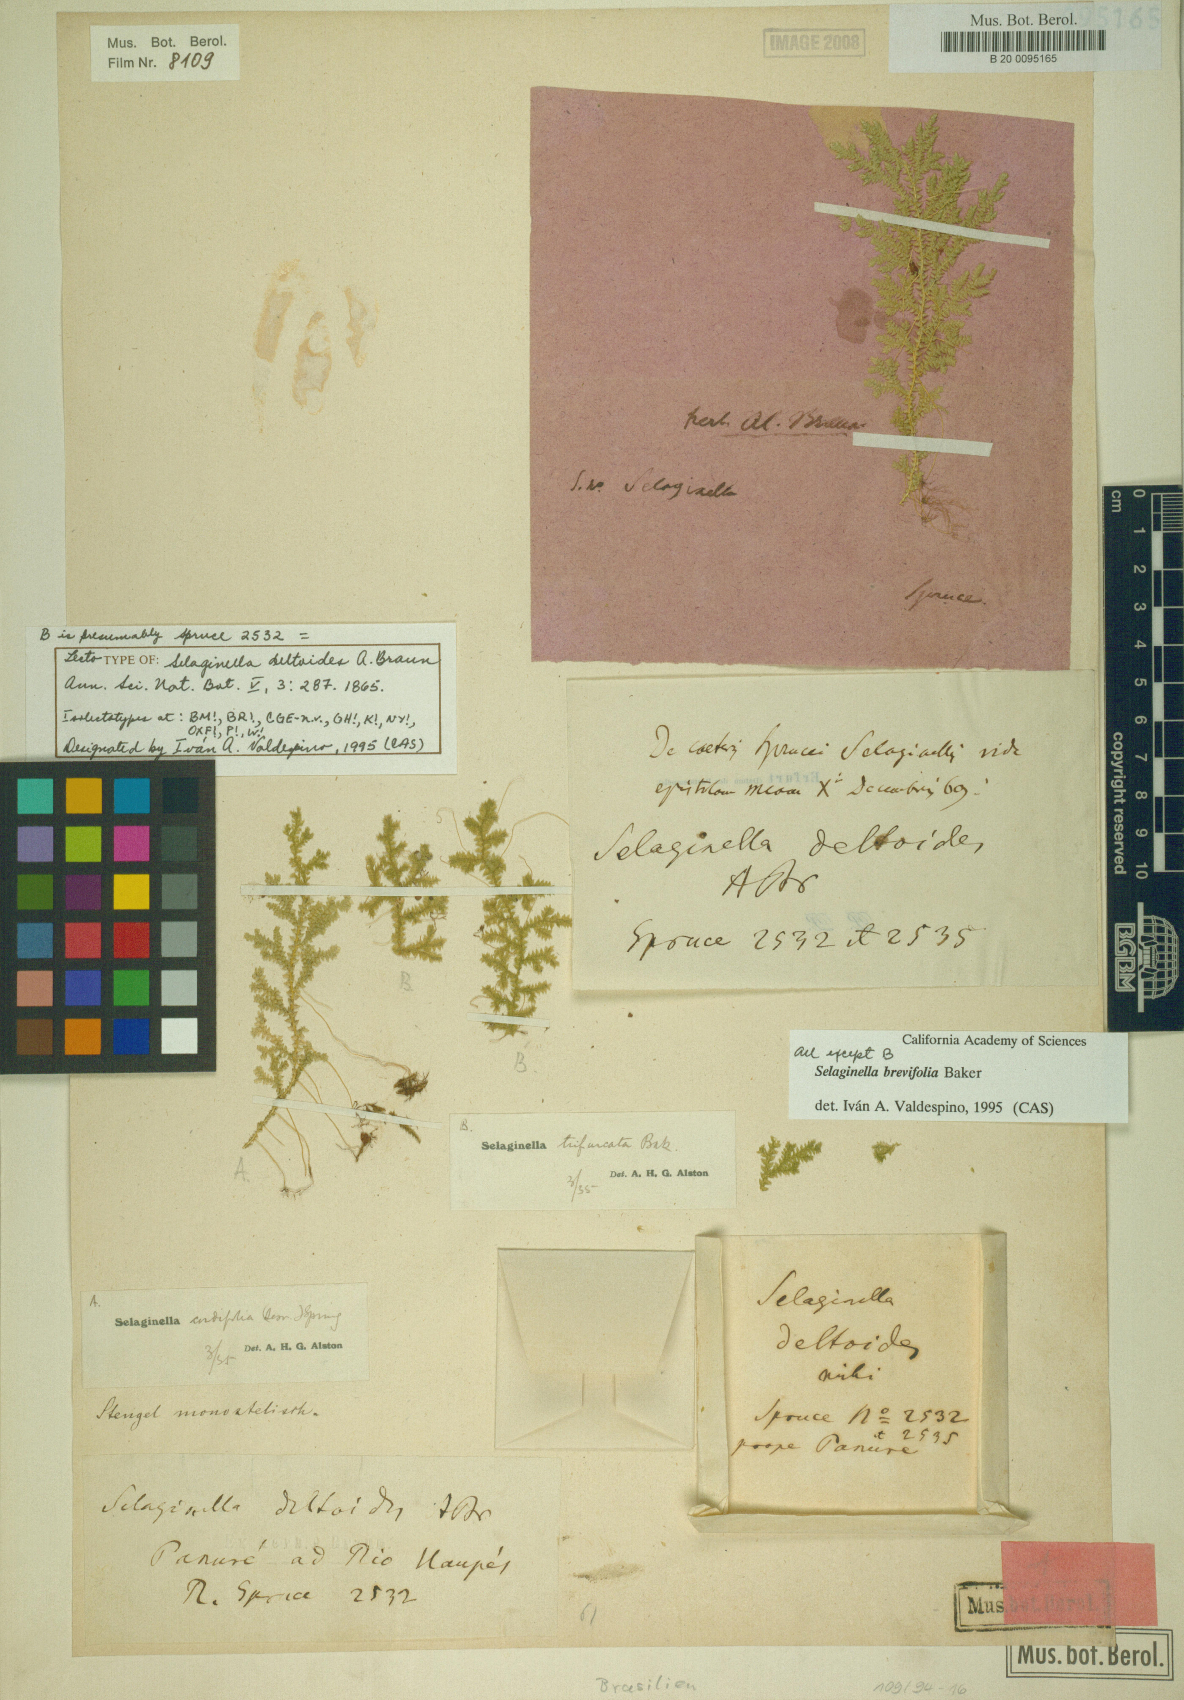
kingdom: Plantae
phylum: Tracheophyta
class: Lycopodiopsida
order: Selaginellales
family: Selaginellaceae
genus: Selaginella
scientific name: Selaginella brevifolia
